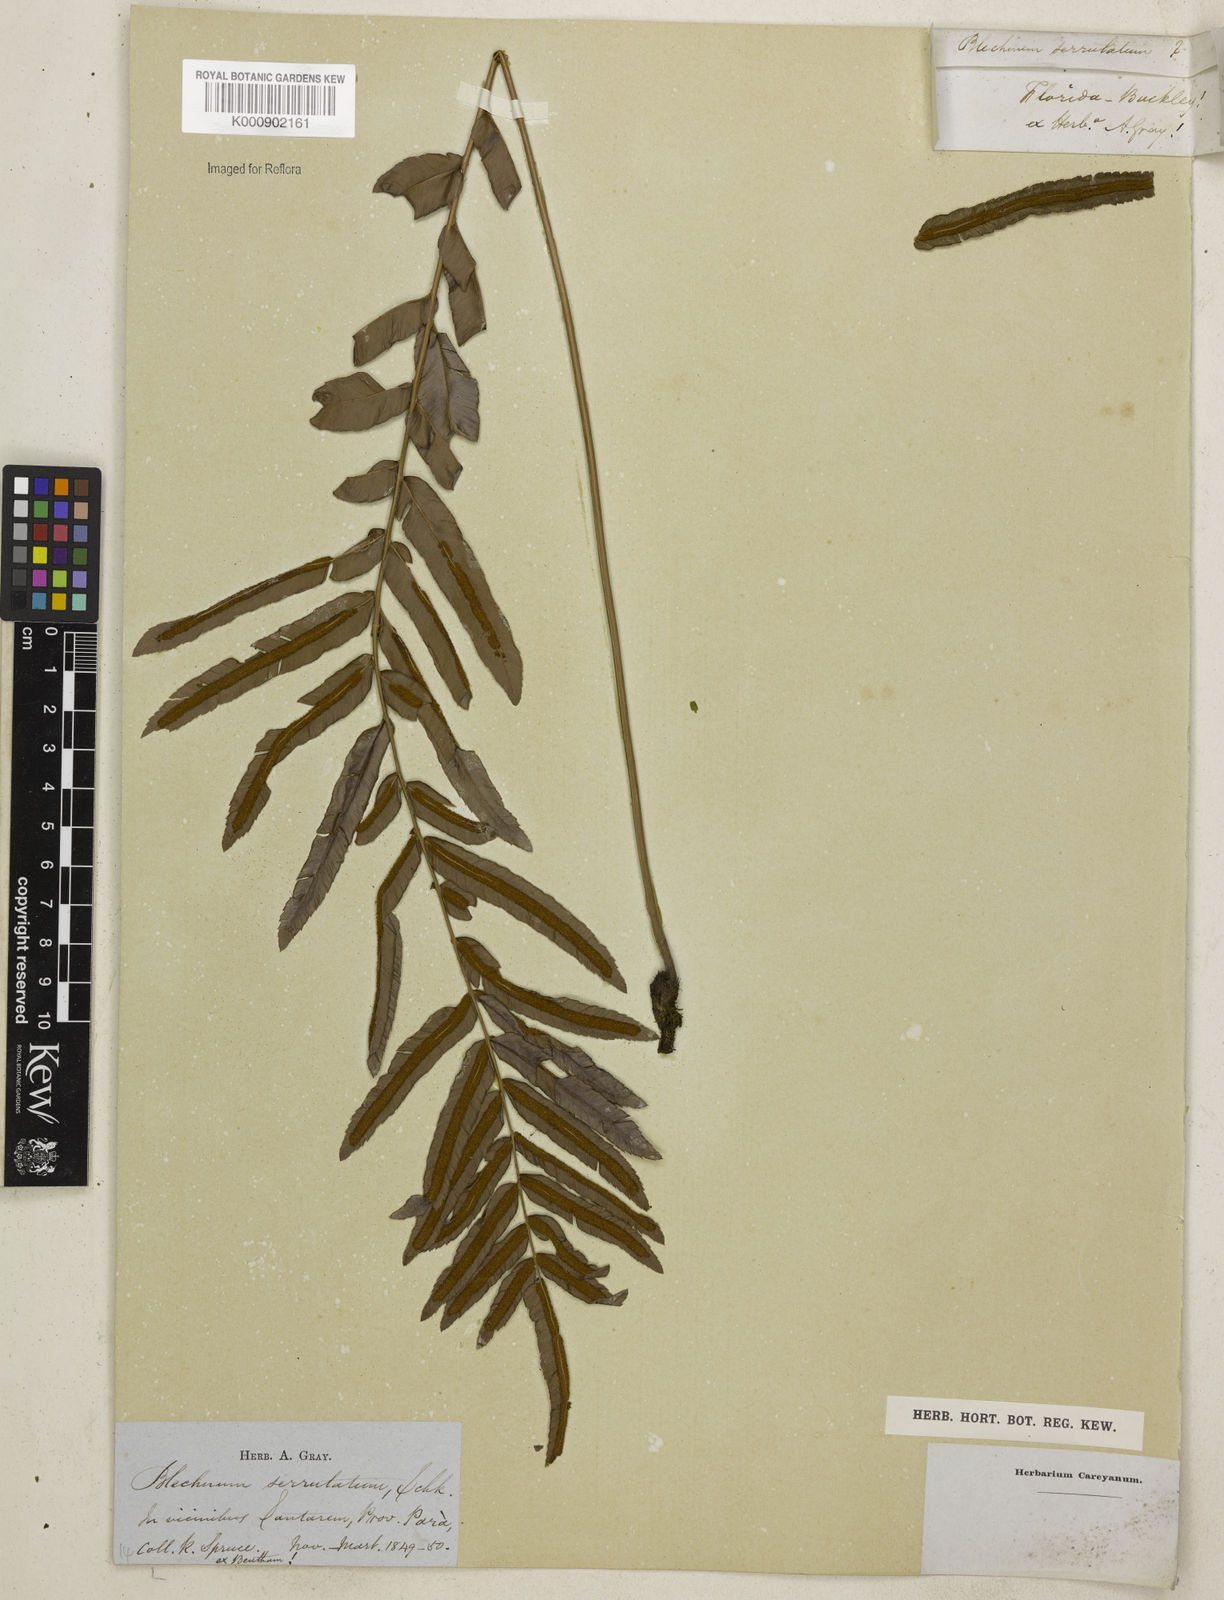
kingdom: Plantae
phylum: Tracheophyta
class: Polypodiopsida
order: Polypodiales
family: Blechnaceae
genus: Telmatoblechnum
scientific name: Telmatoblechnum serrulatum
